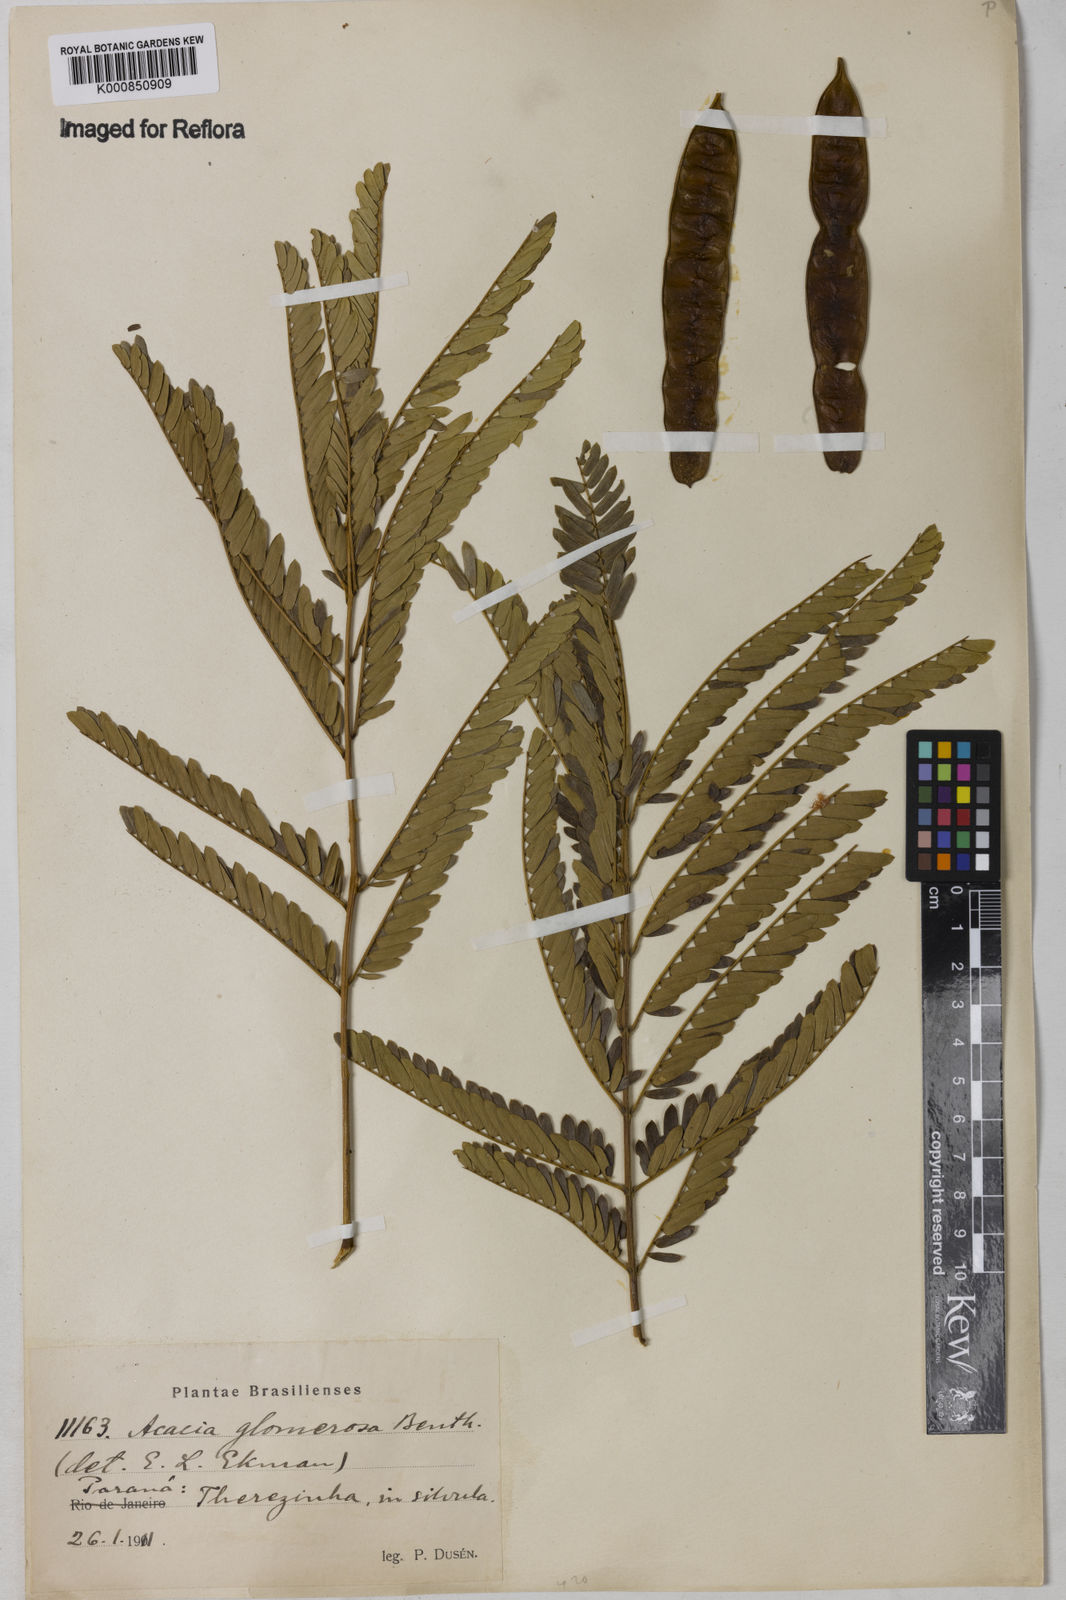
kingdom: Plantae
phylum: Tracheophyta
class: Magnoliopsida
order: Fabales
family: Fabaceae
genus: Senegalia
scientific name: Senegalia polyphylla
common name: White-tamarind
